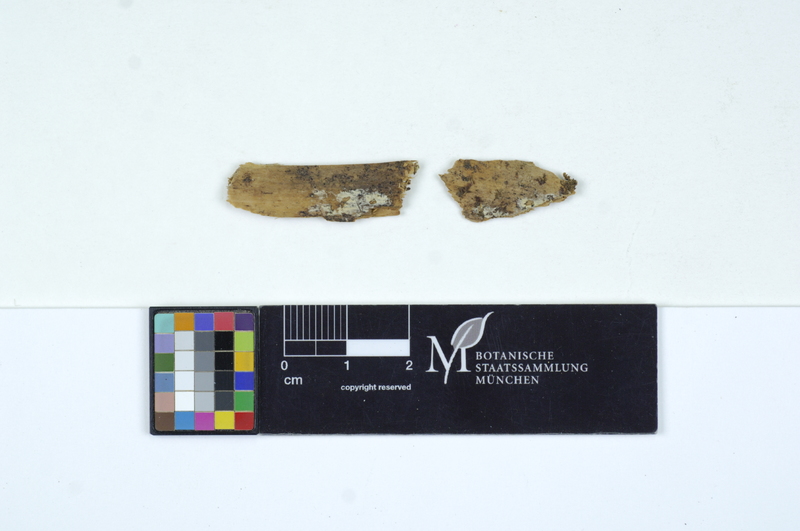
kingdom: Plantae
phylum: Tracheophyta
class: Pinopsida
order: Pinales
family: Pinaceae
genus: Abies
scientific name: Abies
